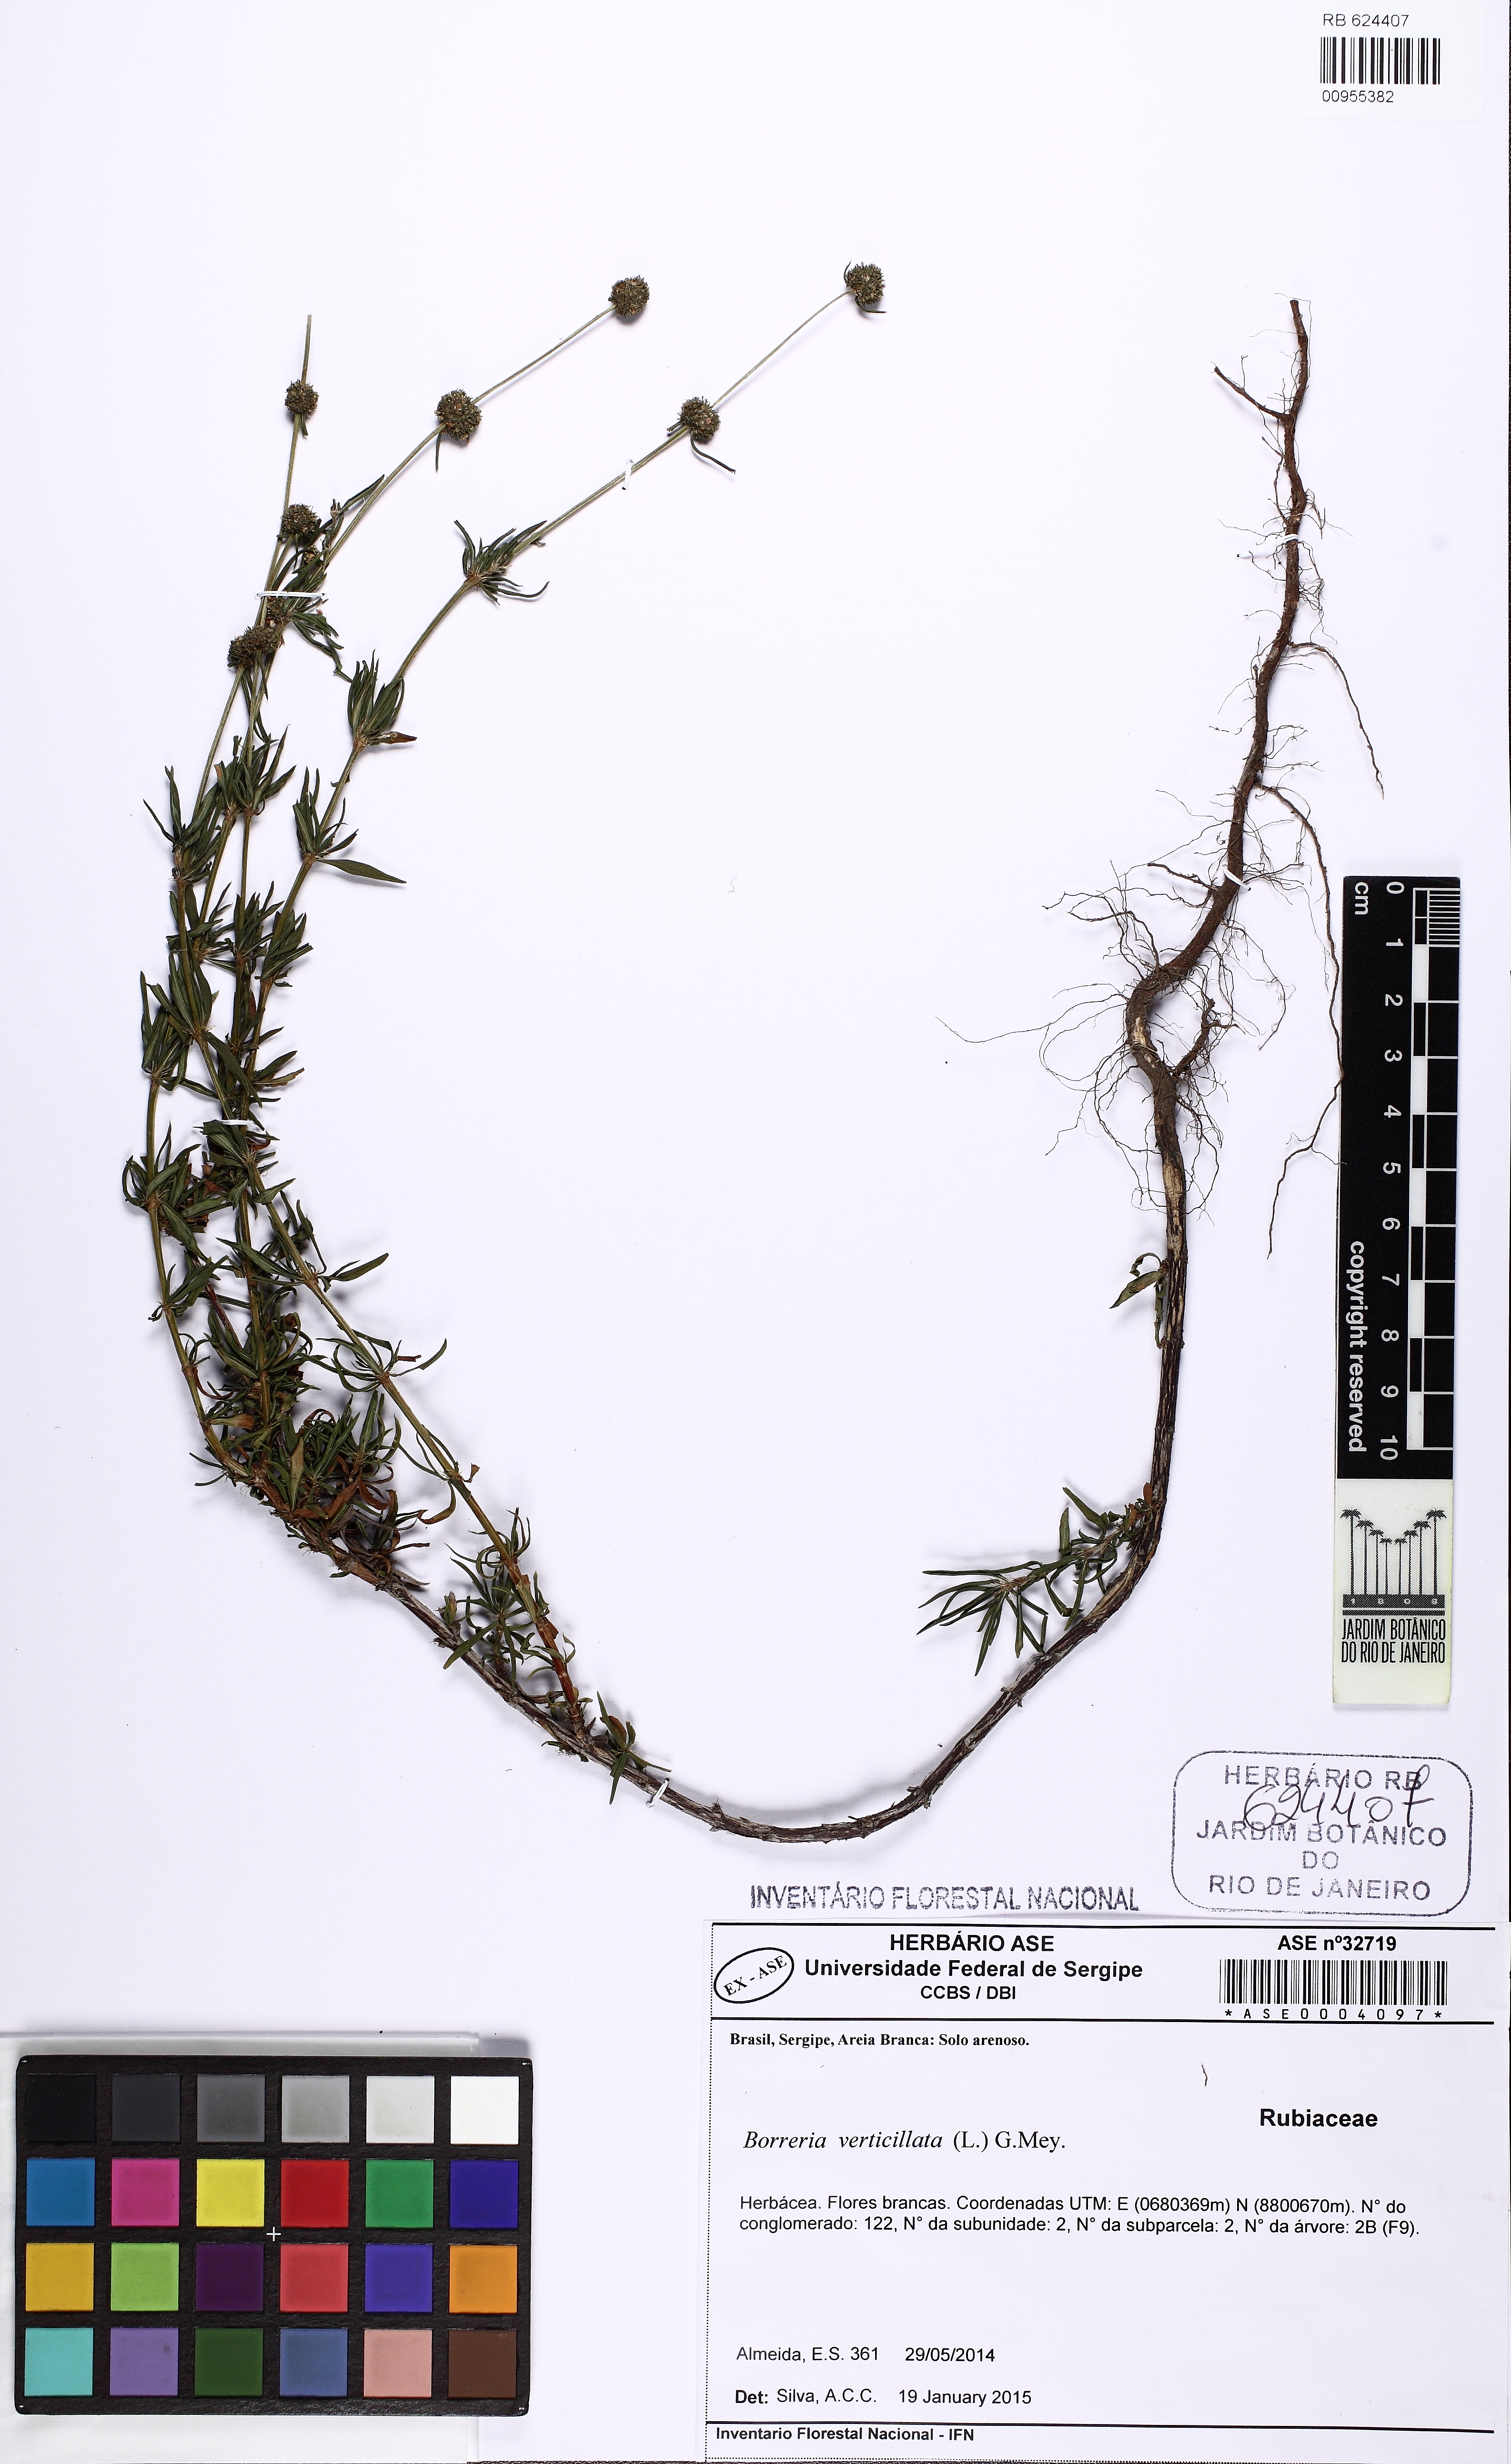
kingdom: Plantae
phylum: Tracheophyta
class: Magnoliopsida
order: Gentianales
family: Rubiaceae
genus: Spermacoce
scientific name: Spermacoce verticillata
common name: Shrubby false buttonweed
